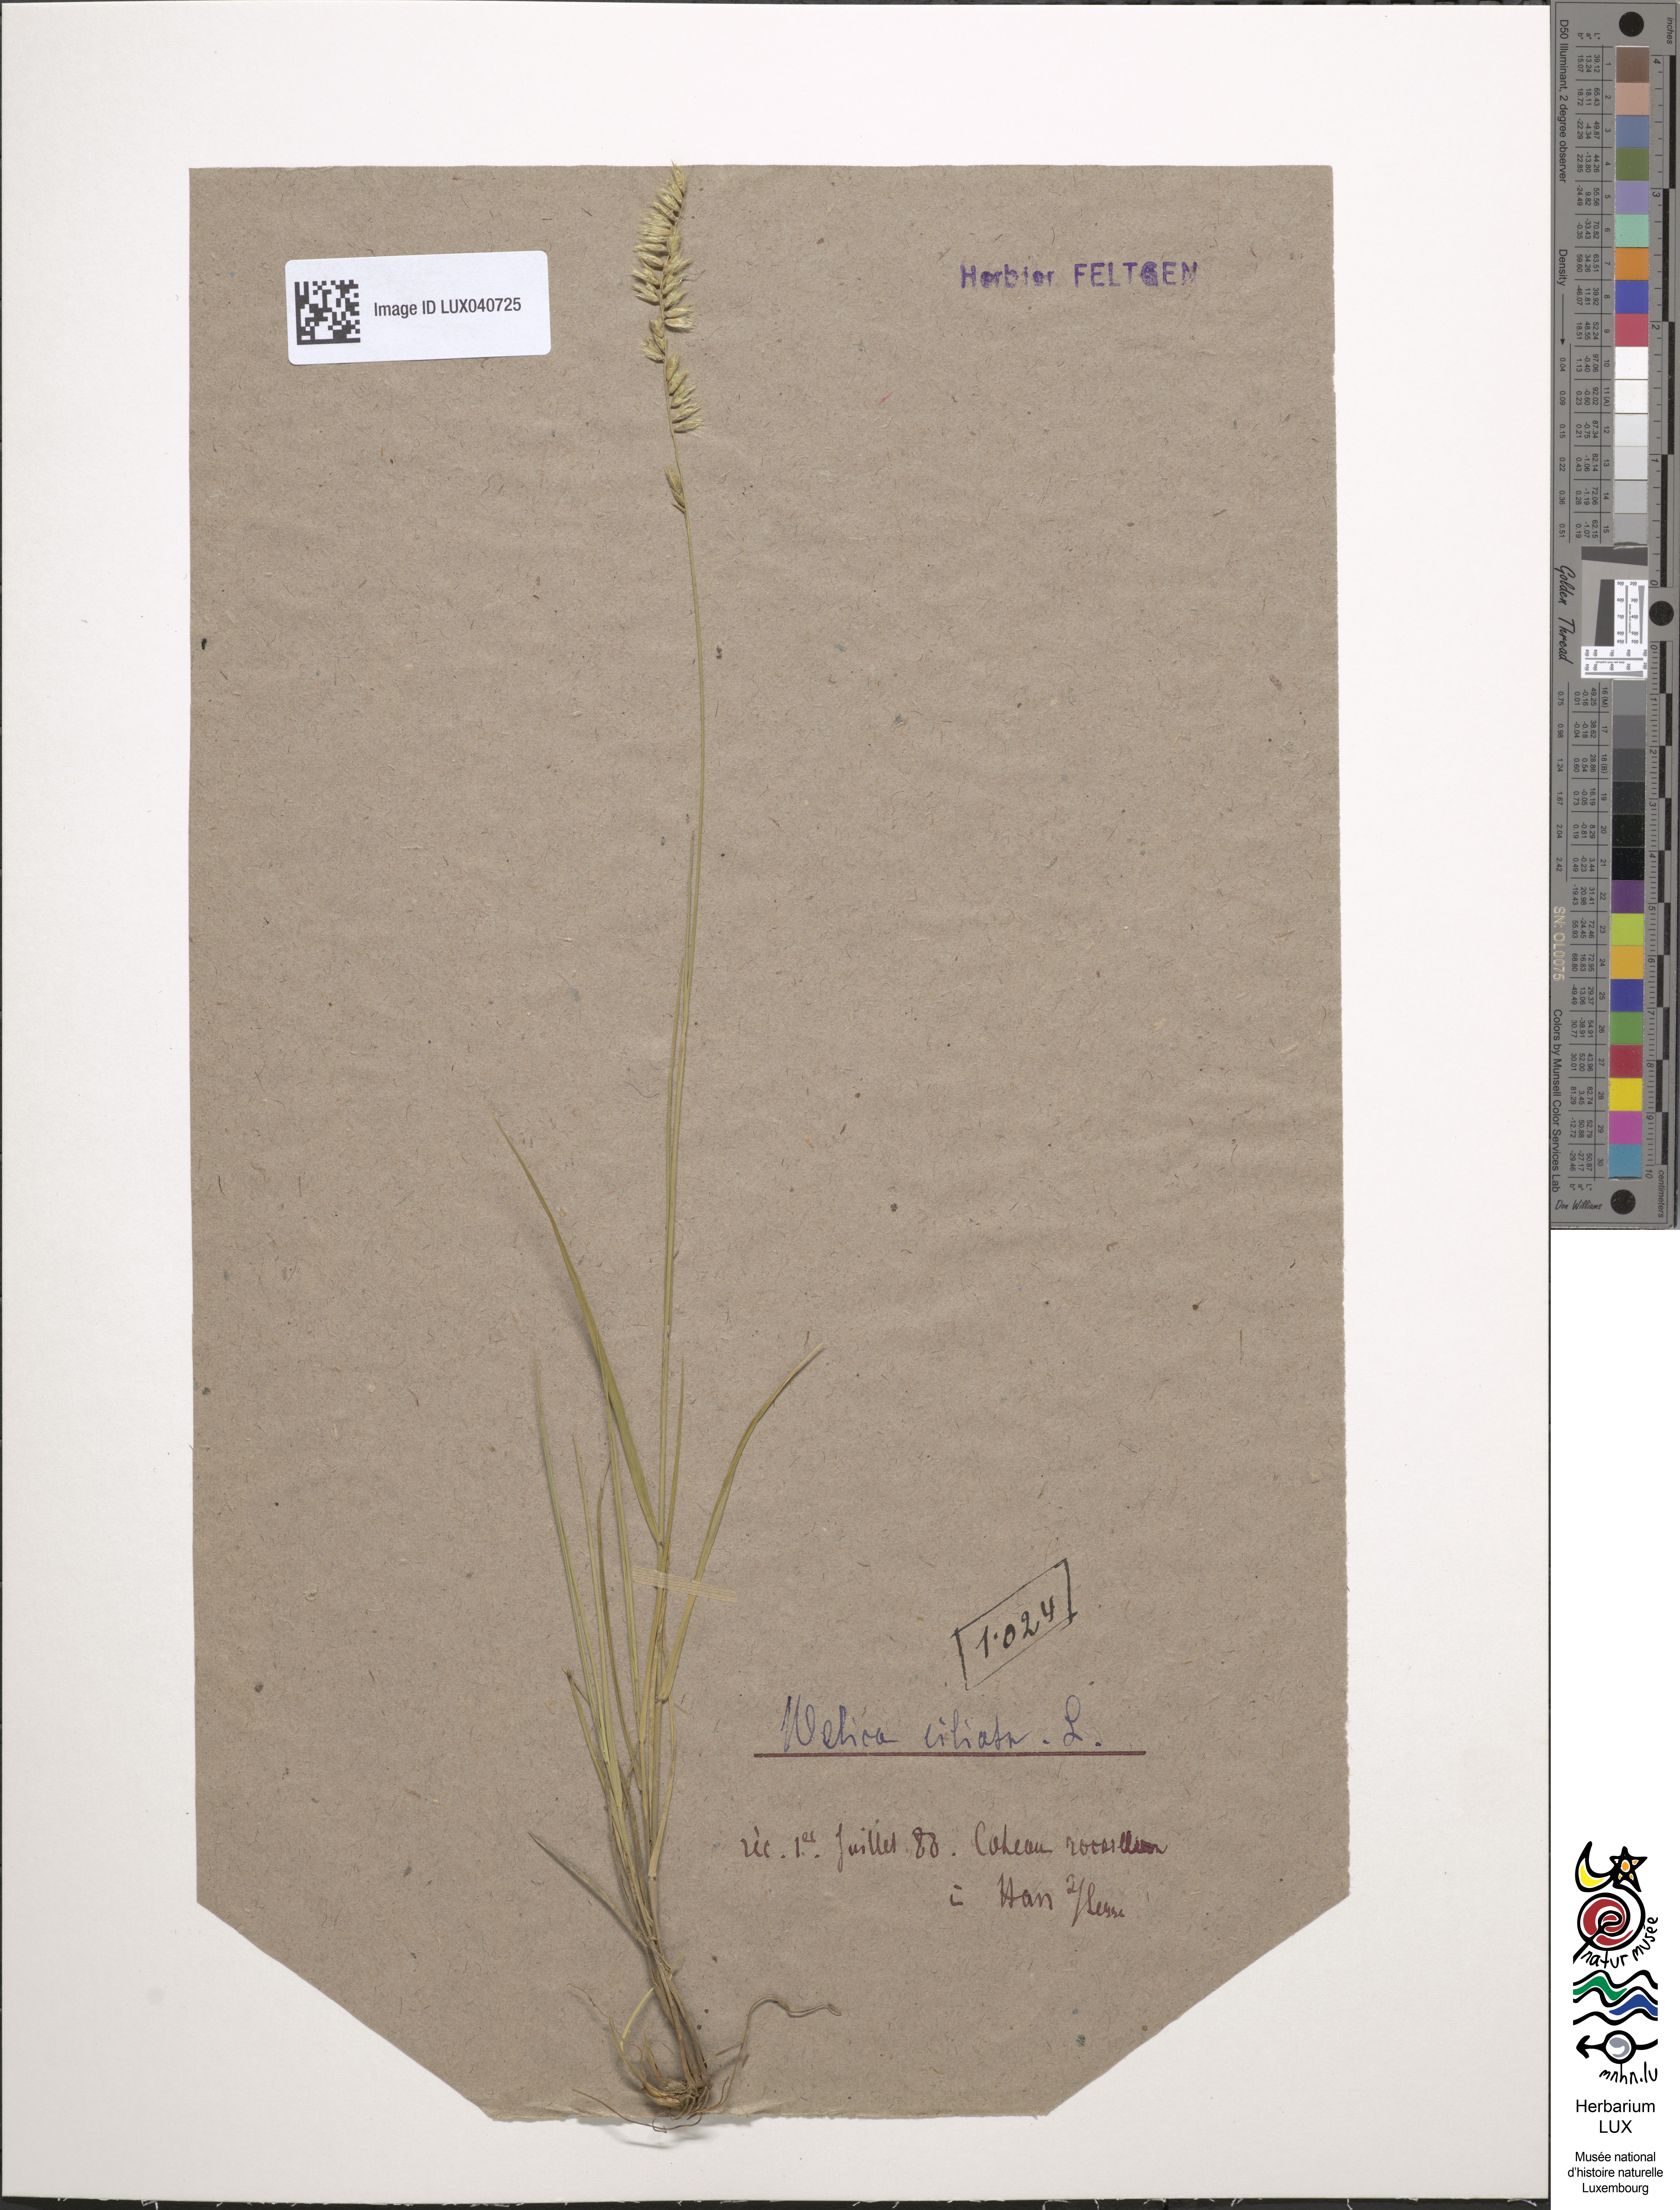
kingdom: Plantae
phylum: Tracheophyta
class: Liliopsida
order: Poales
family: Poaceae
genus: Melica
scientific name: Melica ciliata
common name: Hairy melicgrass
